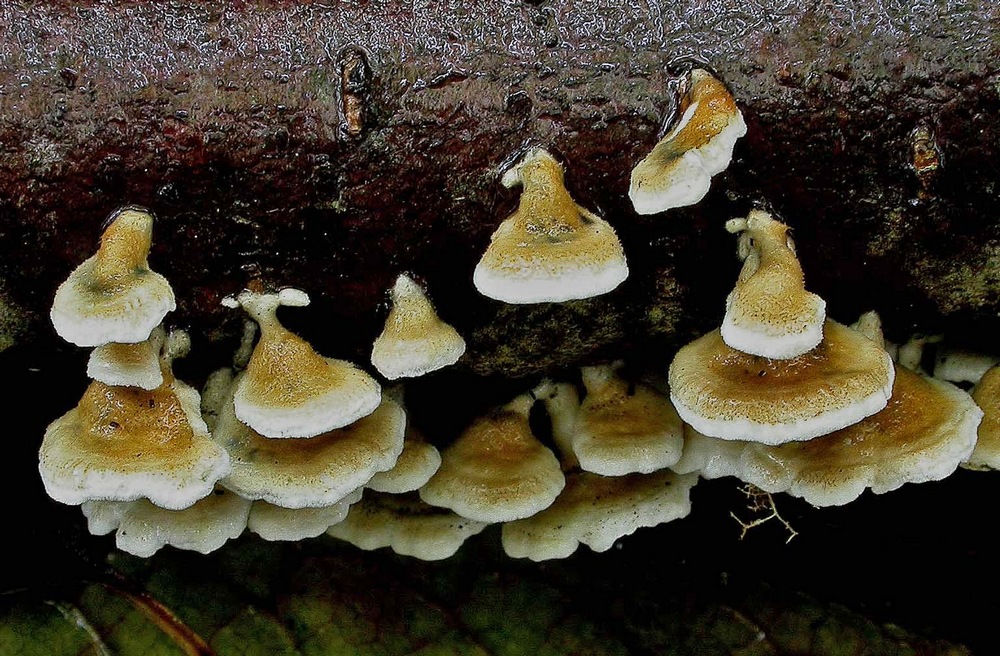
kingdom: Fungi
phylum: Basidiomycota
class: Agaricomycetes
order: Amylocorticiales
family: Amylocorticiaceae
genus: Plicaturopsis
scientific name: Plicaturopsis crispa
